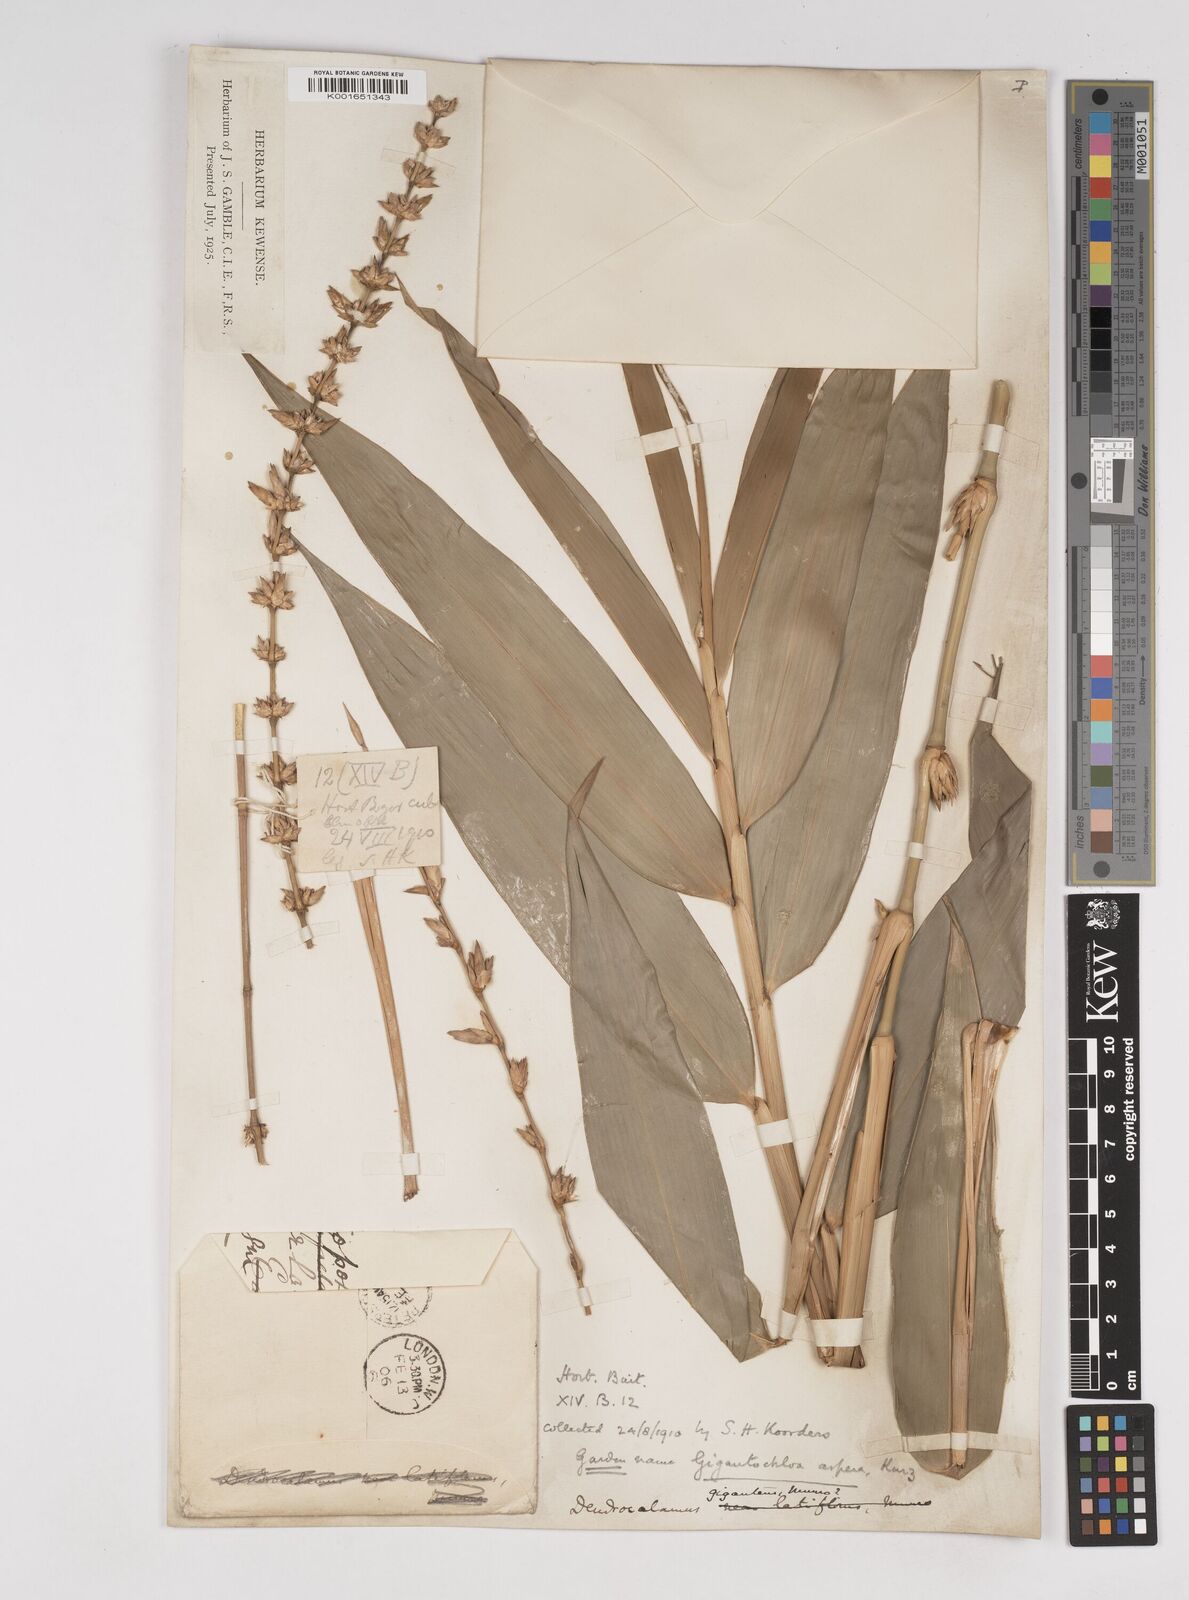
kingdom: Plantae
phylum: Tracheophyta
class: Liliopsida
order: Poales
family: Poaceae
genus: Dendrocalamus
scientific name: Dendrocalamus
